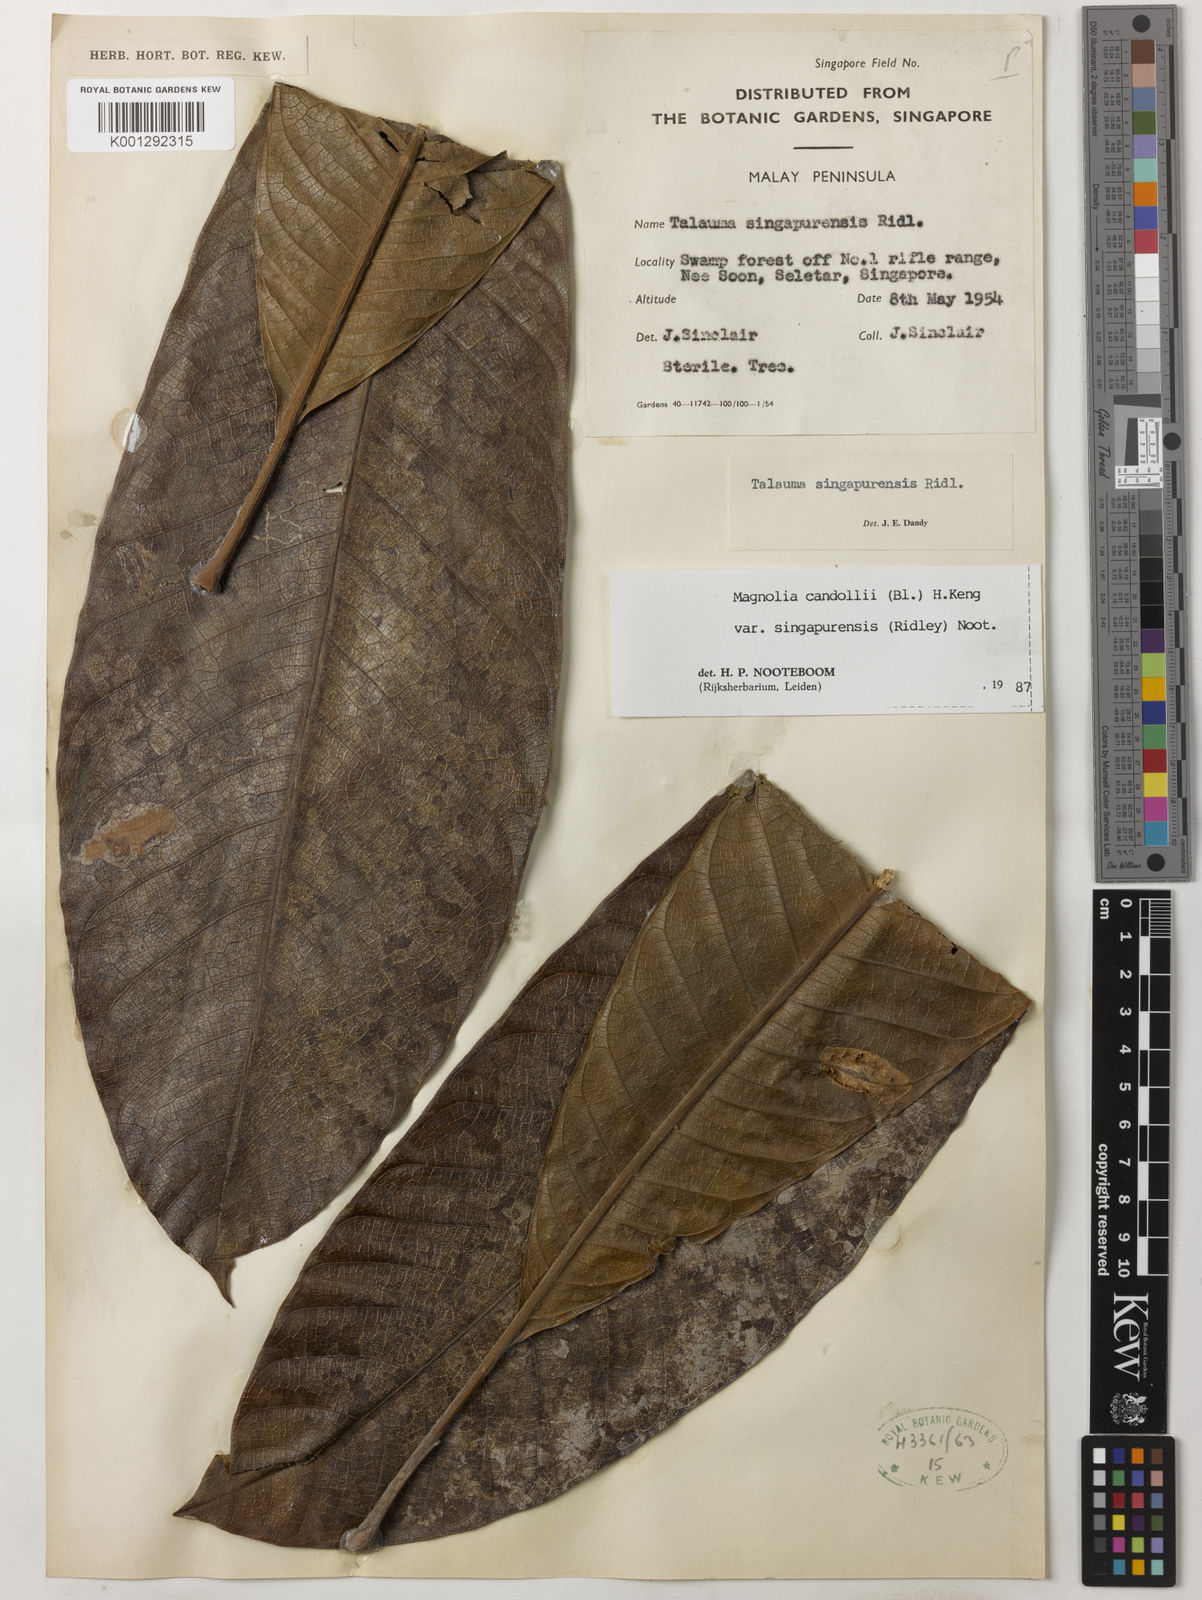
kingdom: Plantae
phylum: Tracheophyta
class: Magnoliopsida
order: Magnoliales
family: Magnoliaceae
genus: Magnolia
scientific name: Magnolia singapurensis
